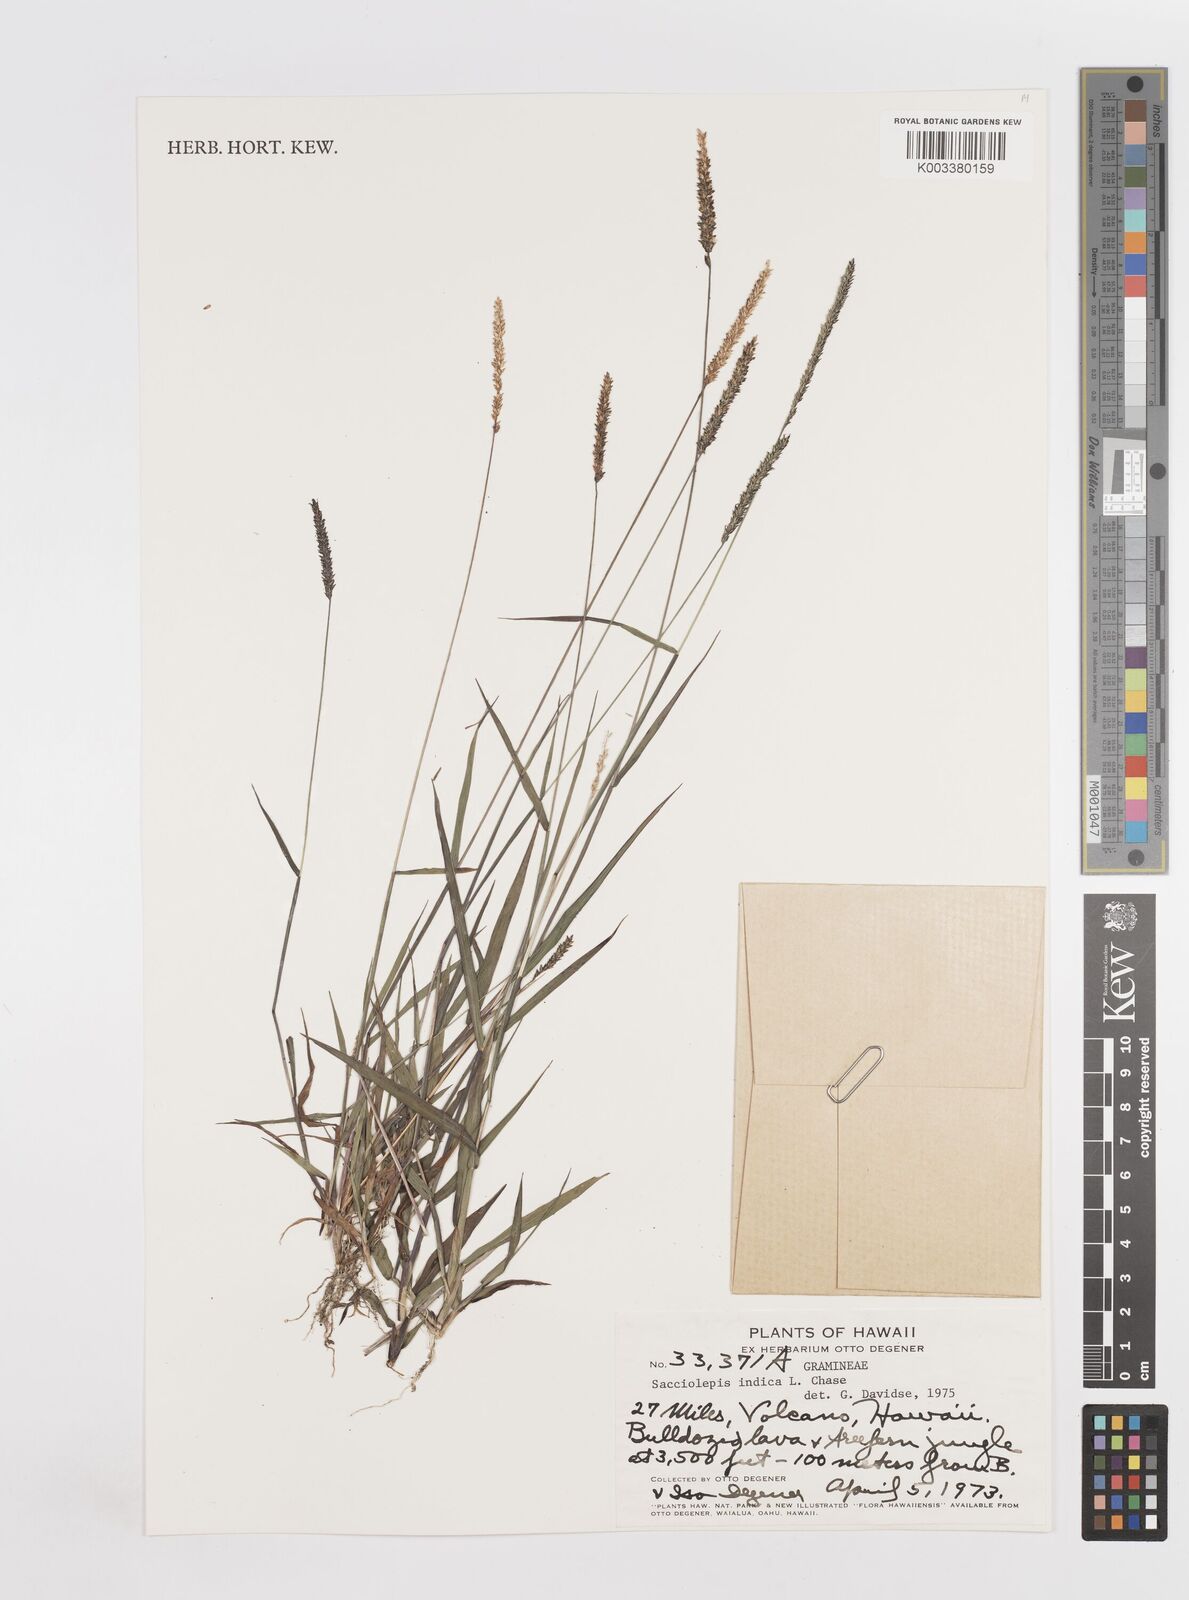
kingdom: Plantae
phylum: Tracheophyta
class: Liliopsida
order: Poales
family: Poaceae
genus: Sacciolepis
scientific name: Sacciolepis indica
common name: Glenwoodgrass
